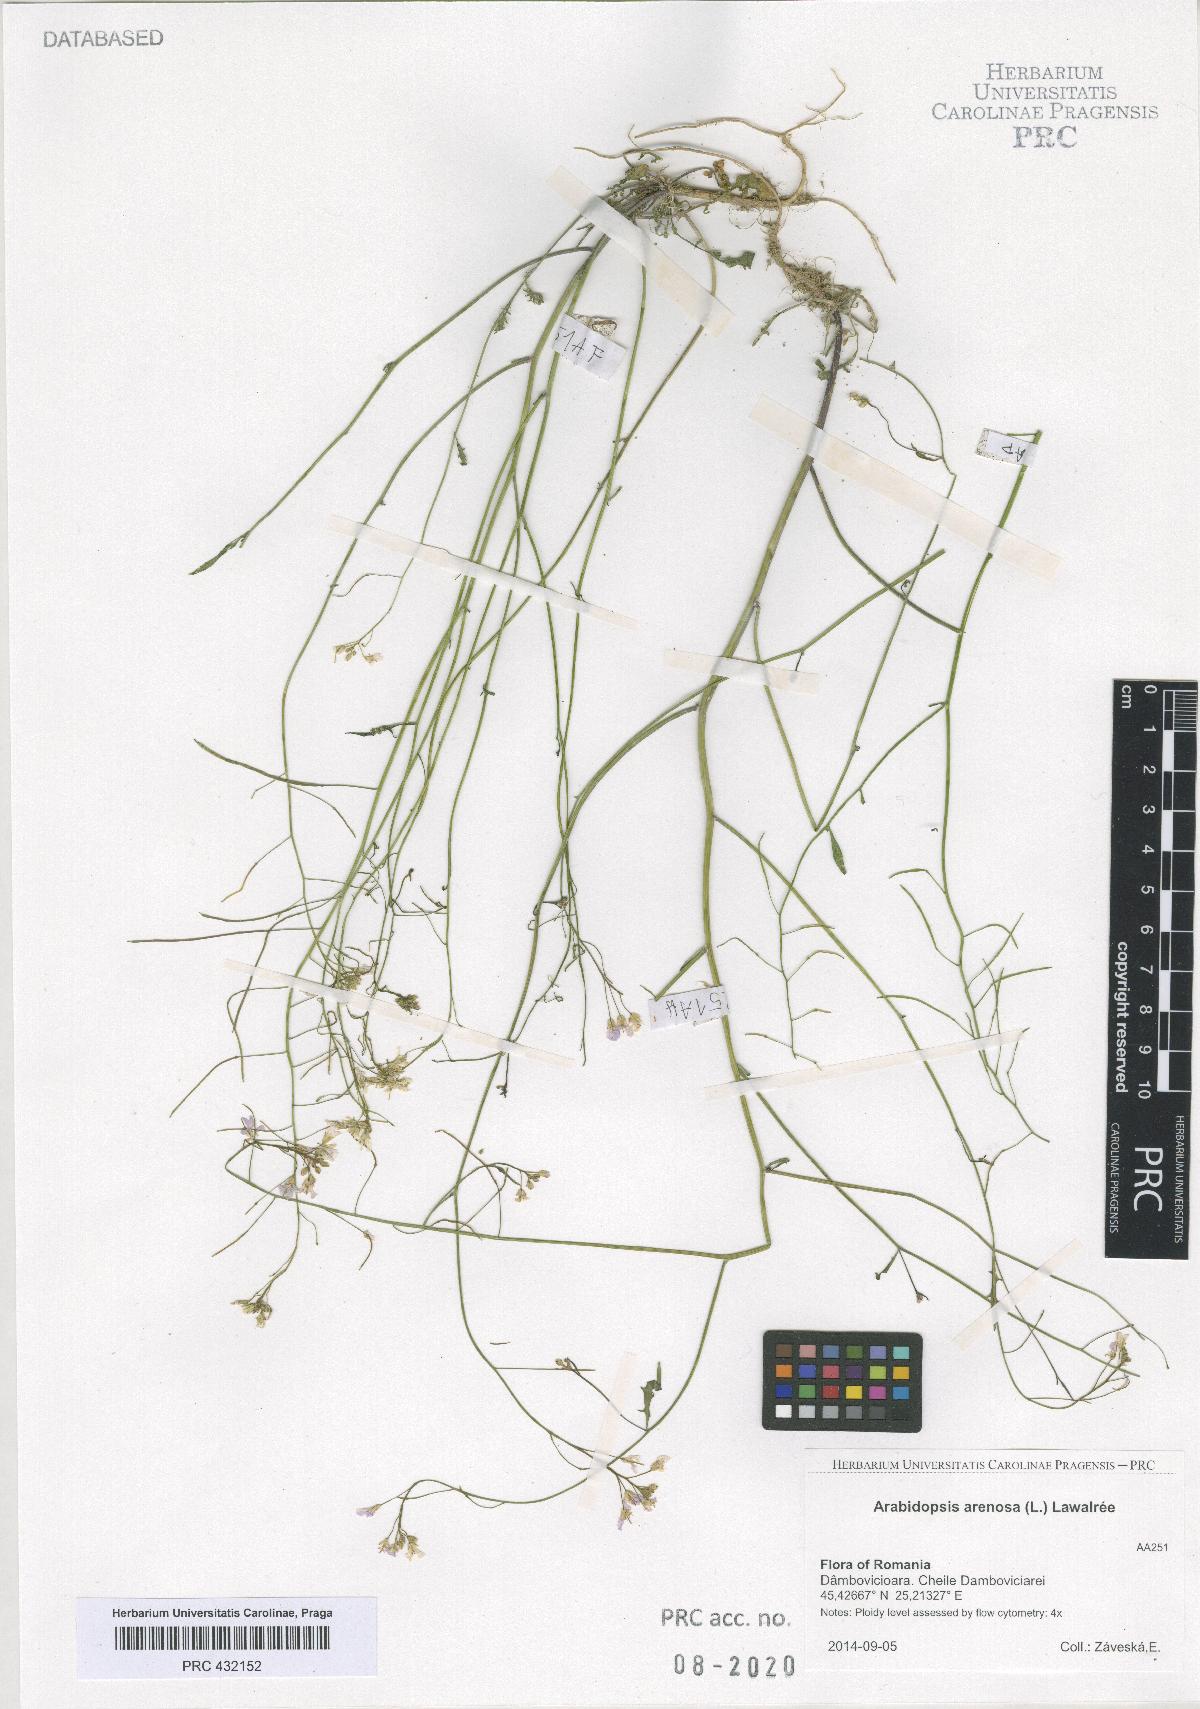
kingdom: Plantae
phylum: Tracheophyta
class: Magnoliopsida
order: Brassicales
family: Brassicaceae
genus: Arabidopsis
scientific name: Arabidopsis arenosa
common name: Sand rock-cress
